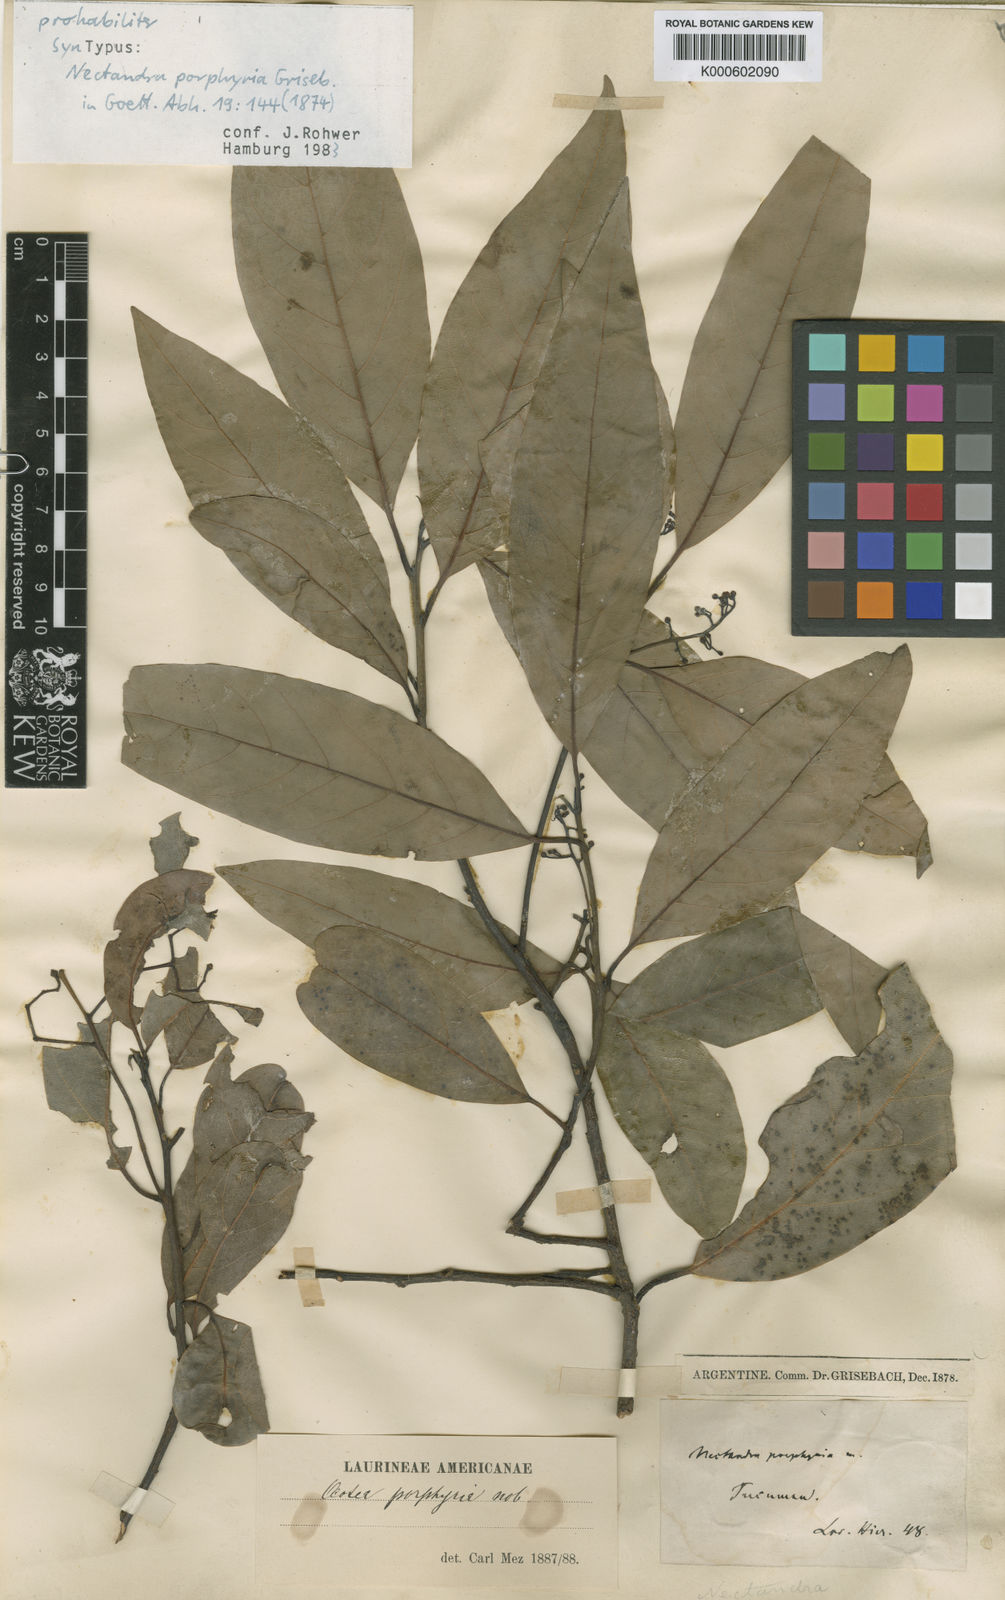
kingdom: Plantae
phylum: Tracheophyta
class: Magnoliopsida
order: Laurales
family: Lauraceae
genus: Ocotea
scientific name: Ocotea porphyria
